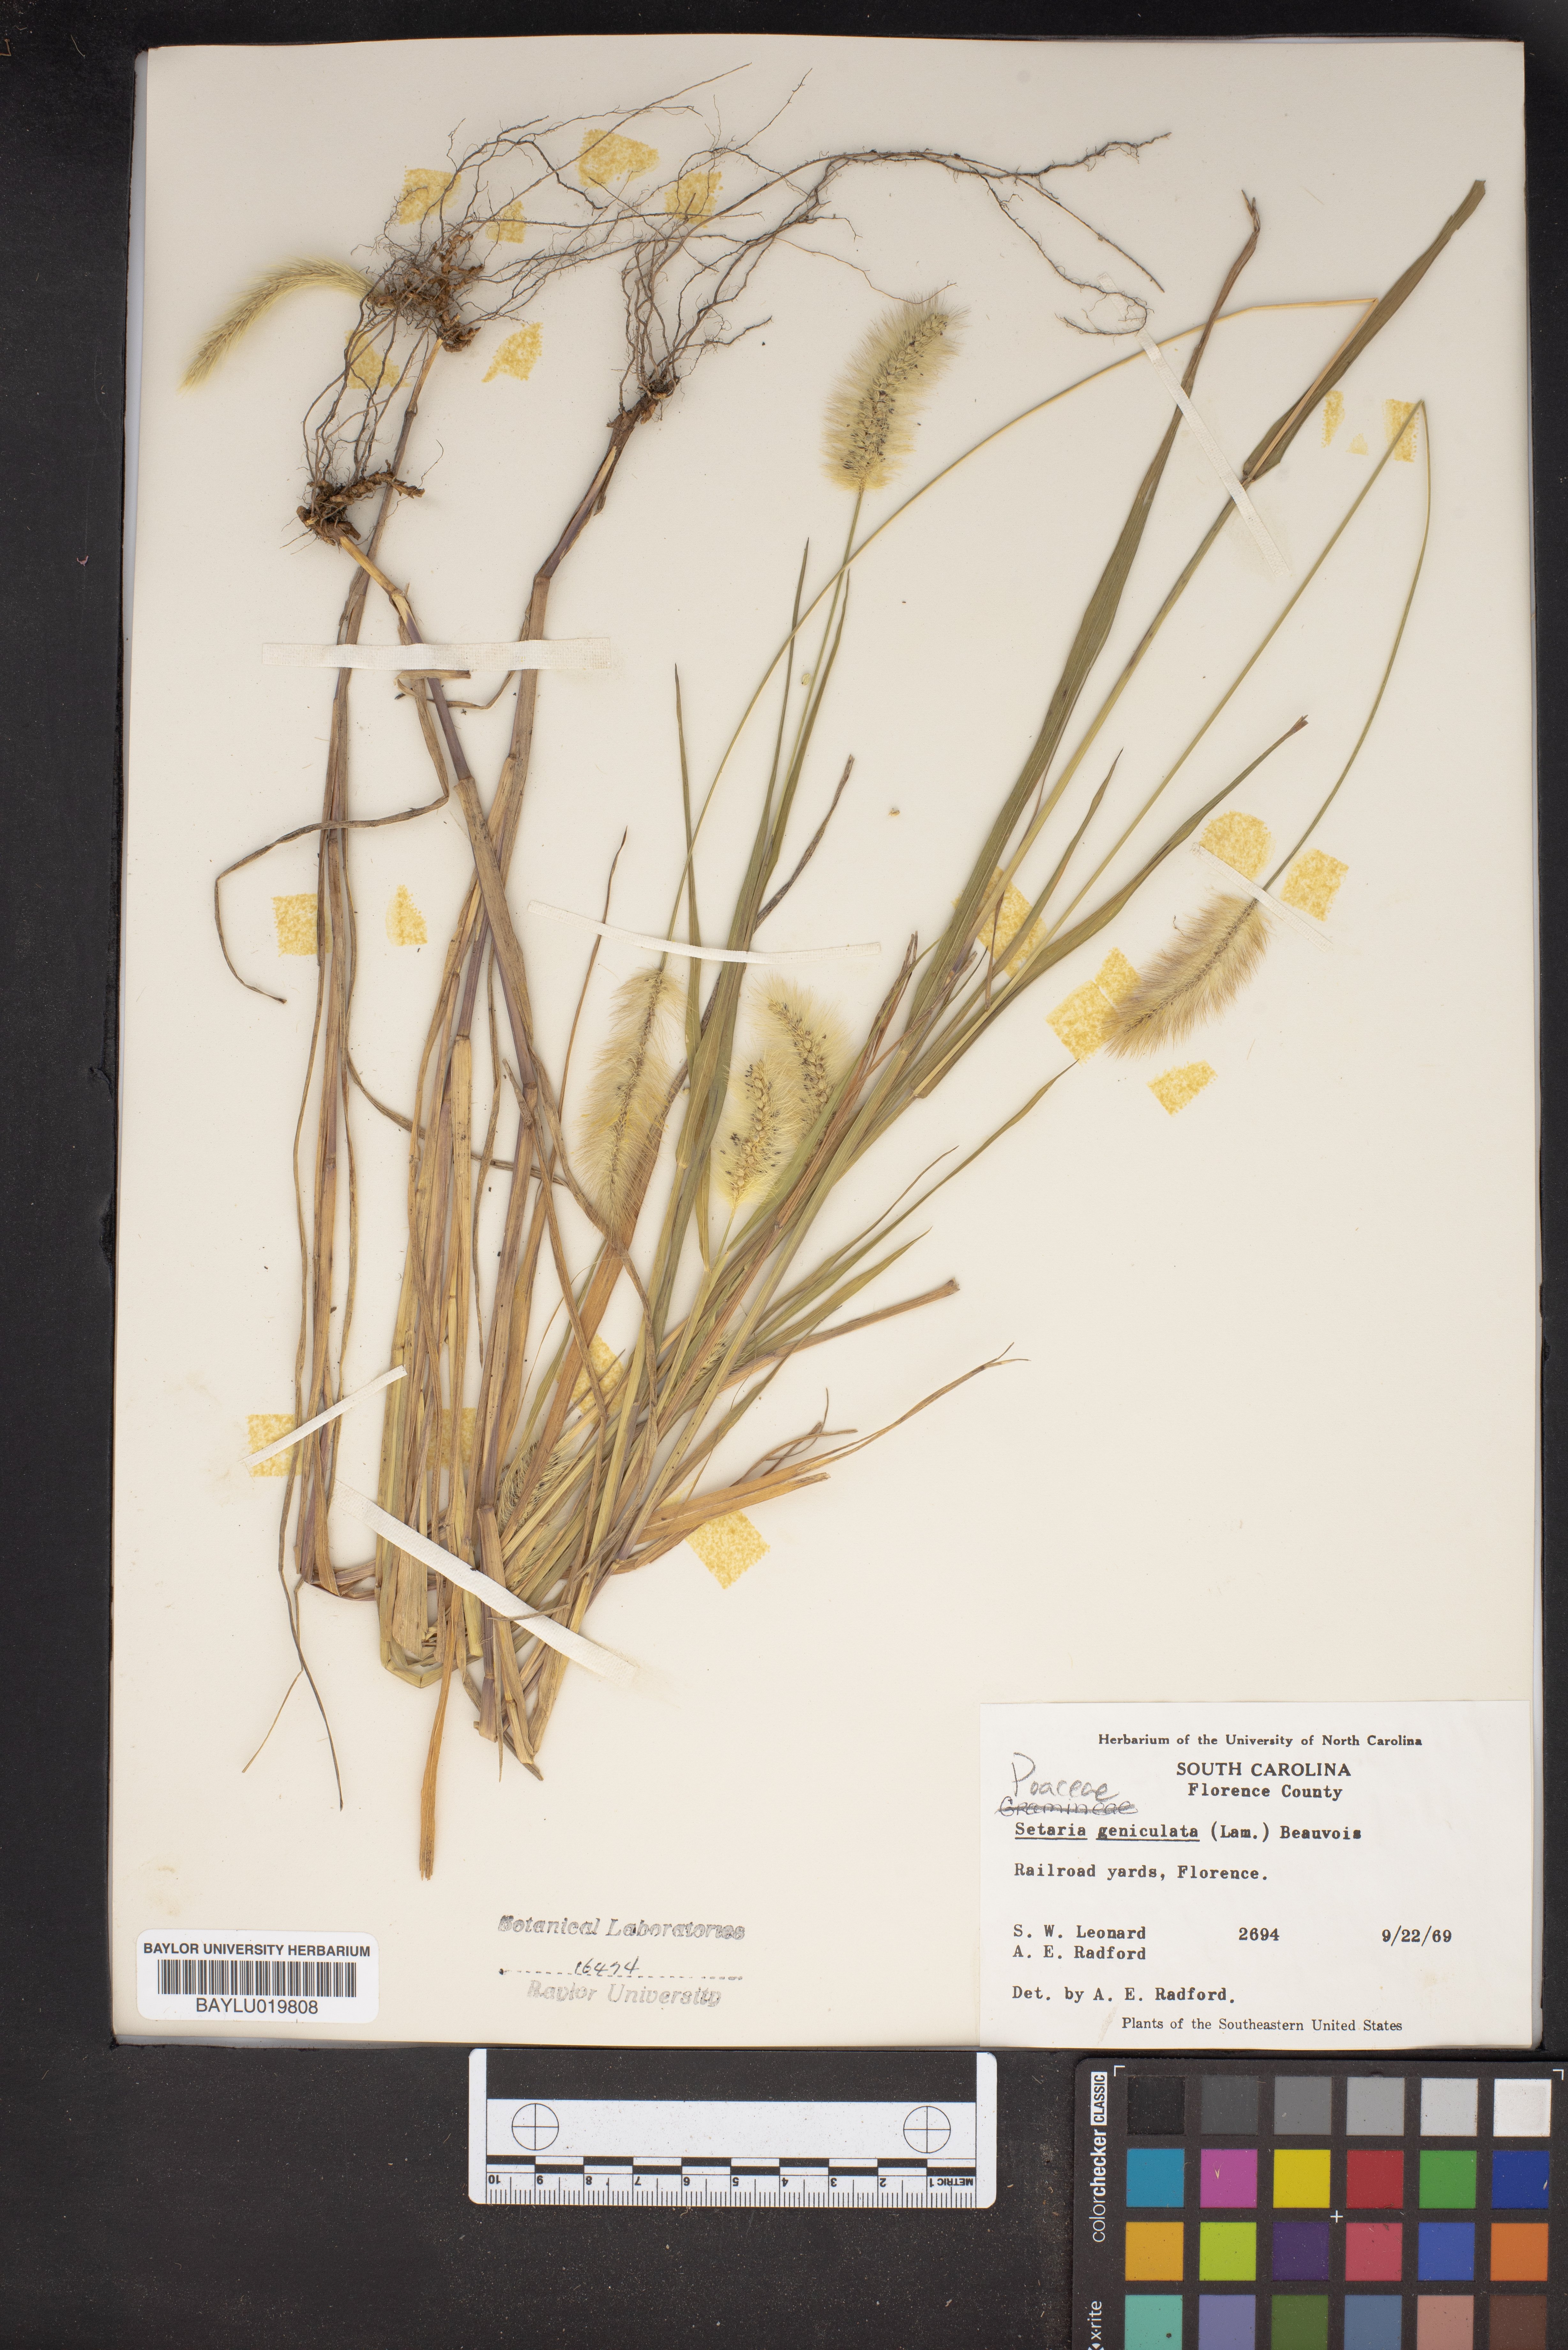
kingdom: Plantae
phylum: Tracheophyta
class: Liliopsida
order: Poales
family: Poaceae
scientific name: Poaceae
